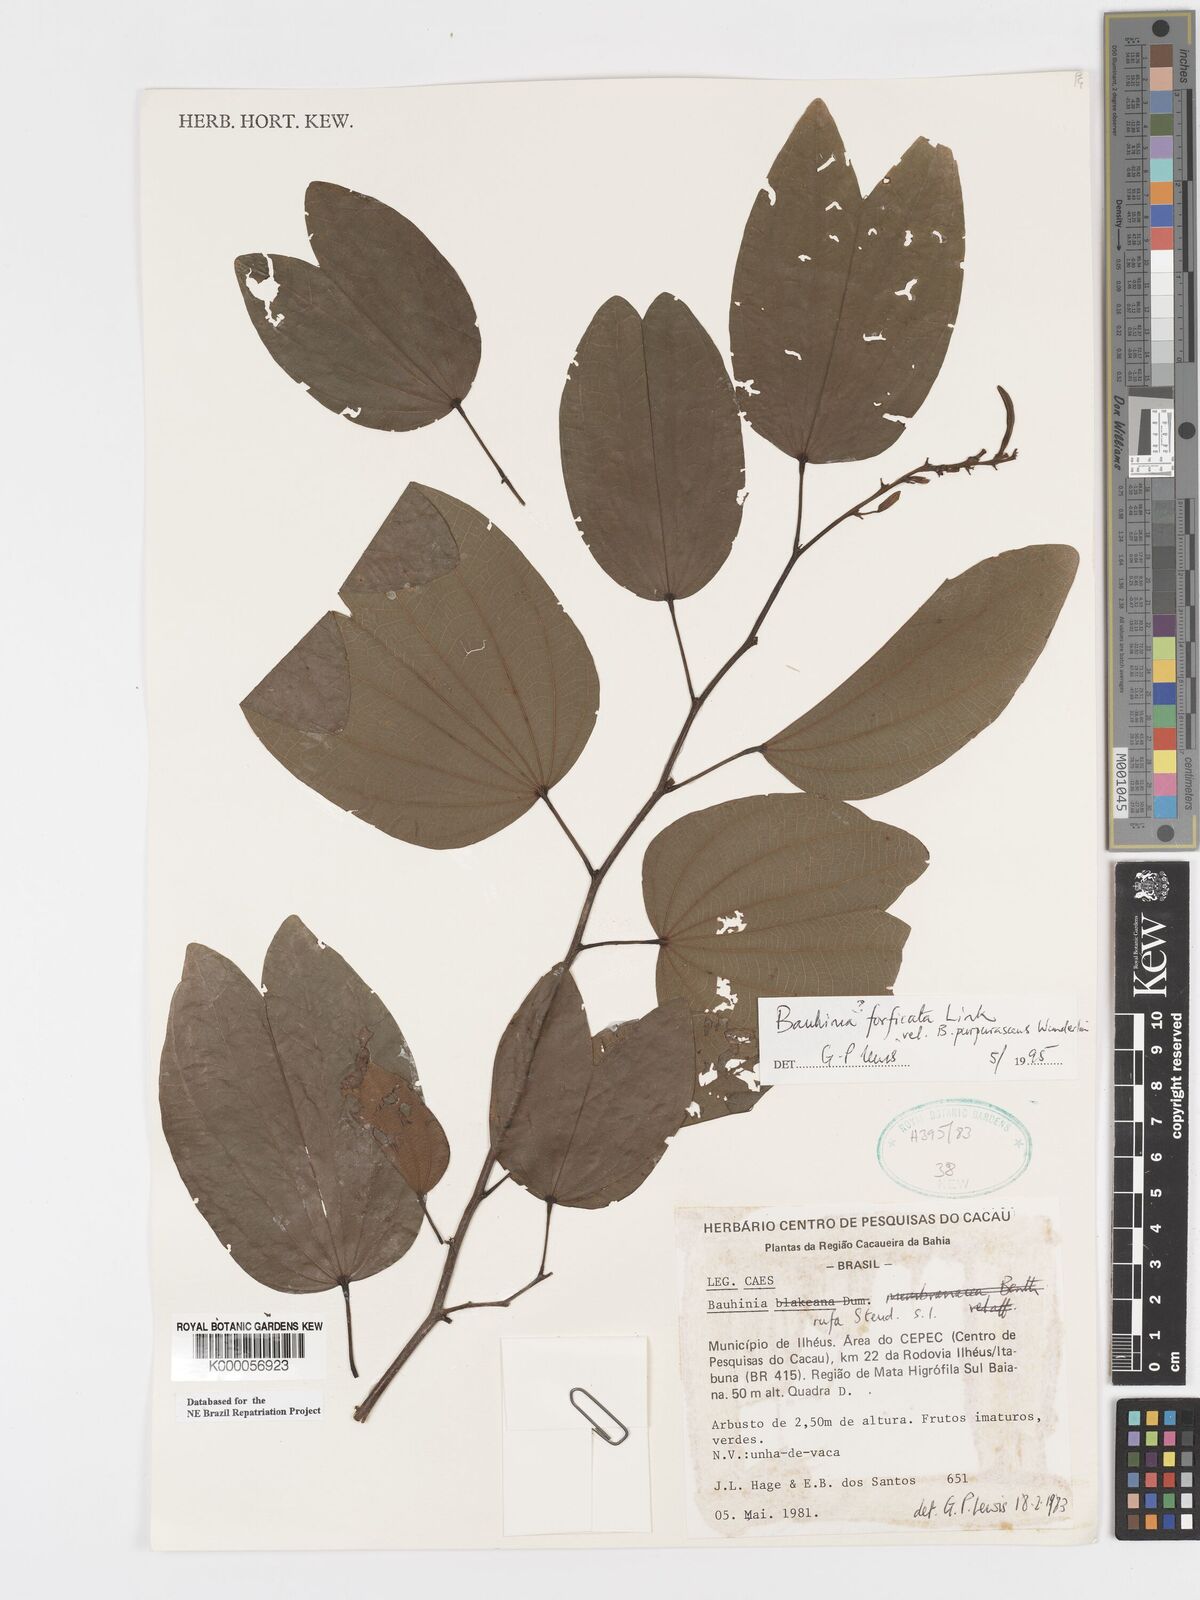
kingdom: Plantae
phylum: Tracheophyta
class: Magnoliopsida
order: Fabales
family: Fabaceae
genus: Bauhinia
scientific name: Bauhinia forficata
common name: Orchid tree
